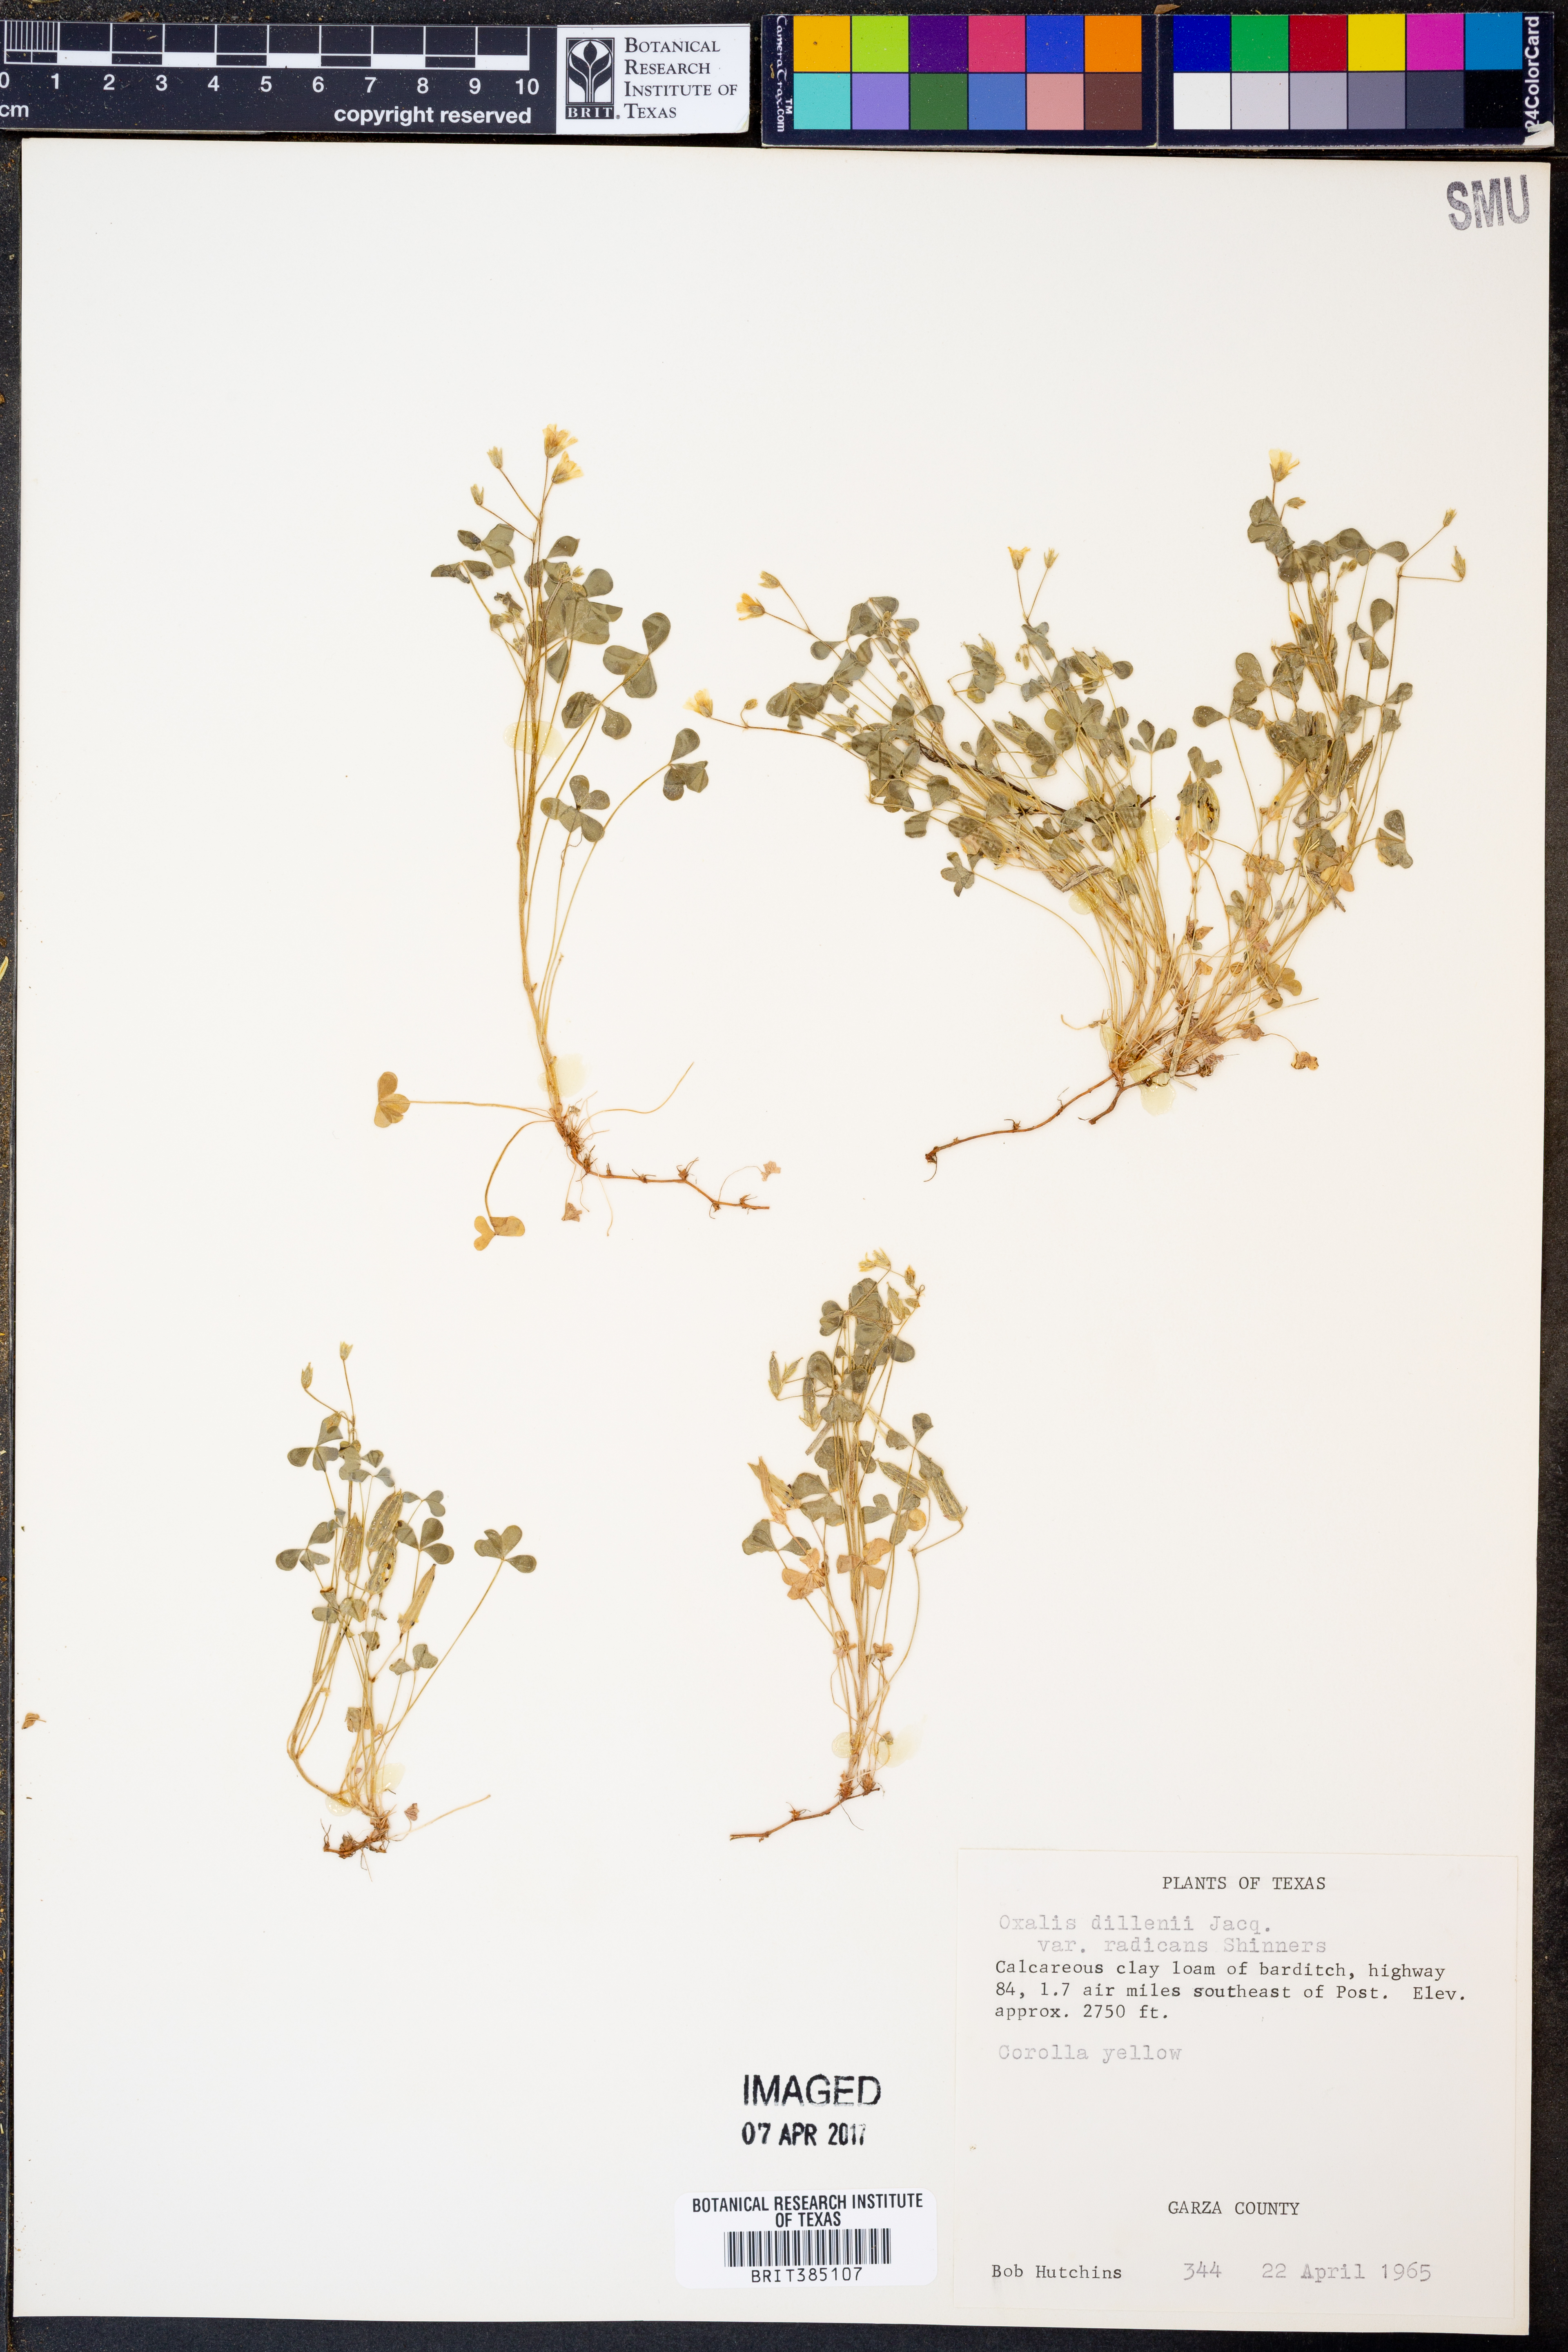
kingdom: Plantae
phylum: Tracheophyta
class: Magnoliopsida
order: Oxalidales
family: Oxalidaceae
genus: Oxalis
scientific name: Oxalis dillenii
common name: Sussex yellow-sorrel
